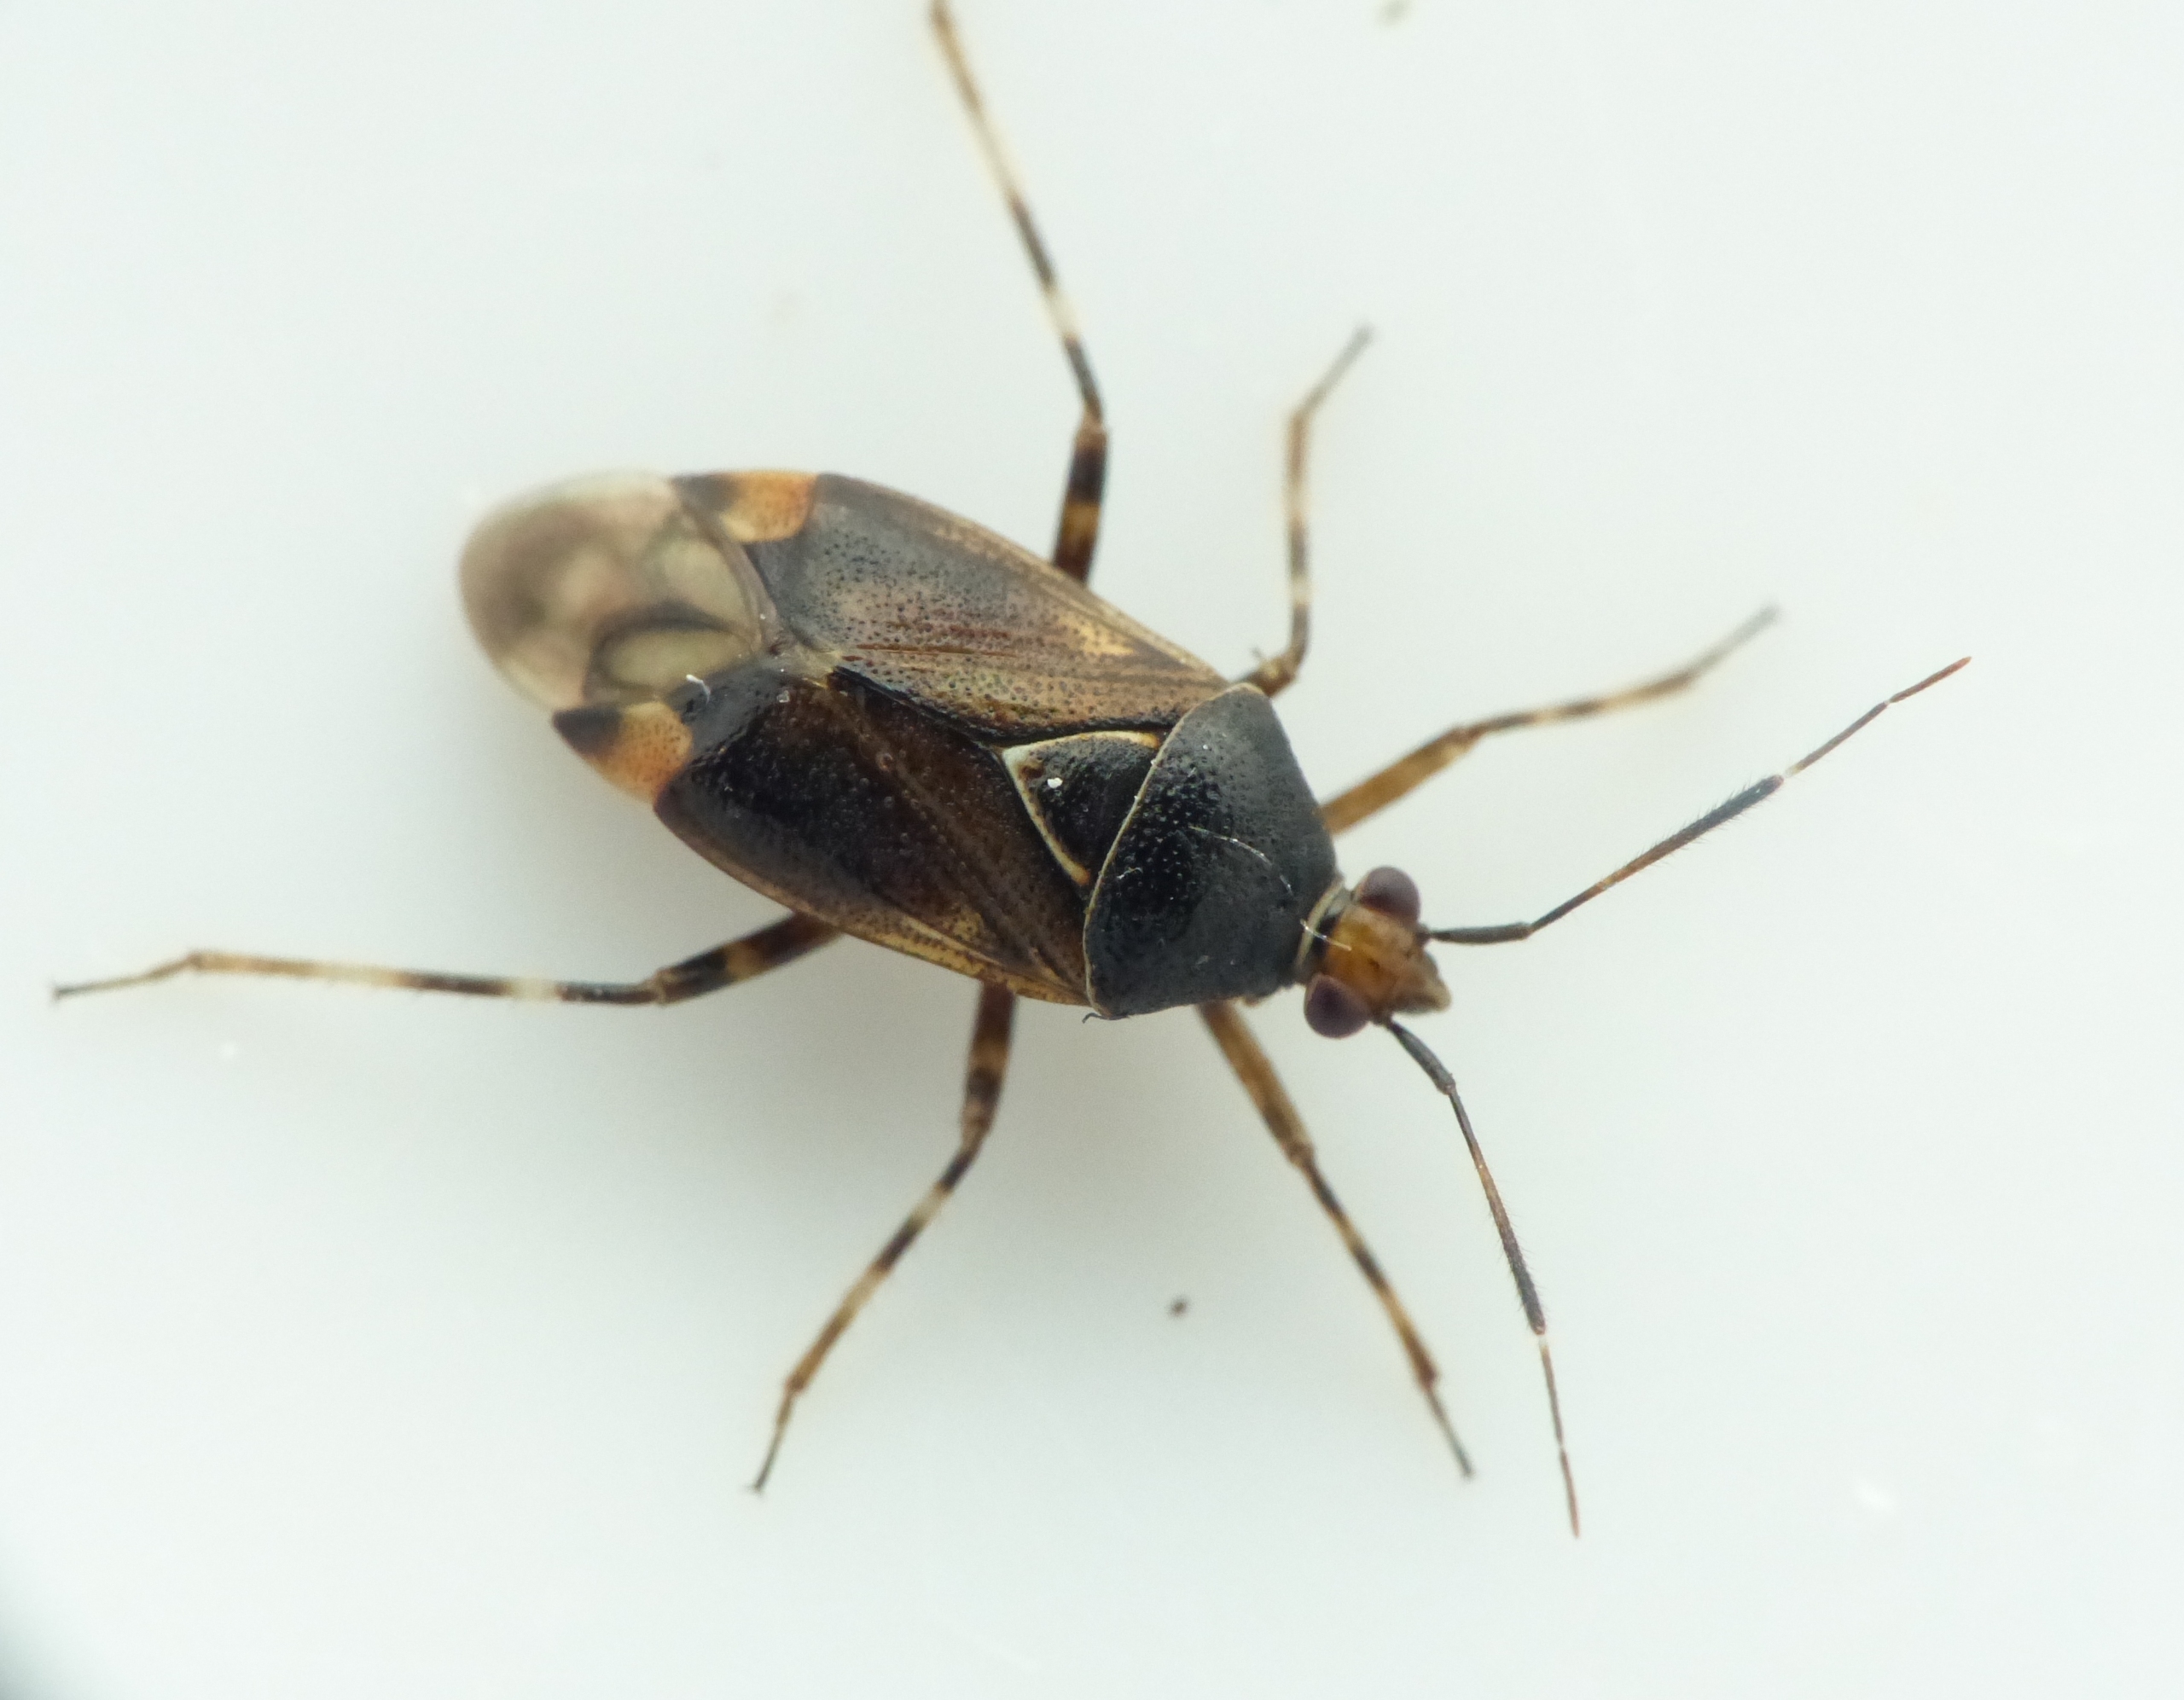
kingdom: Animalia
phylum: Arthropoda
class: Insecta
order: Hemiptera
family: Miridae
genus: Deraeocoris
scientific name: Deraeocoris flavilinea
